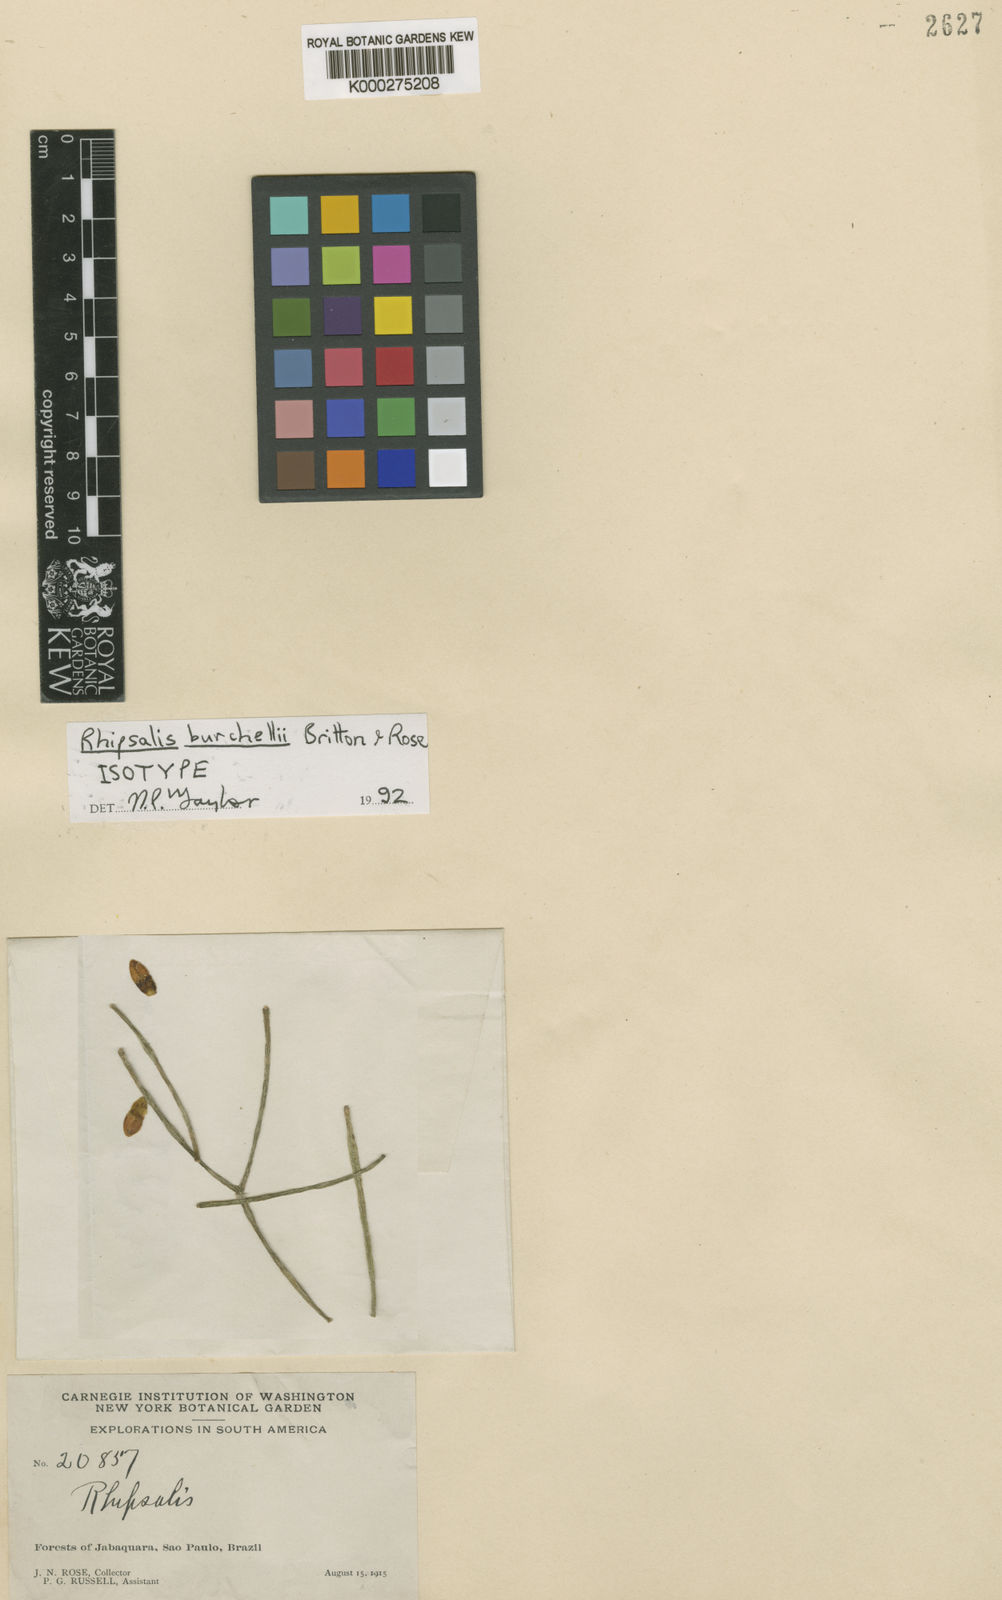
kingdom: Plantae
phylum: Tracheophyta
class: Magnoliopsida
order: Caryophyllales
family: Cactaceae
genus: Rhipsalis
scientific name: Rhipsalis burchellii
